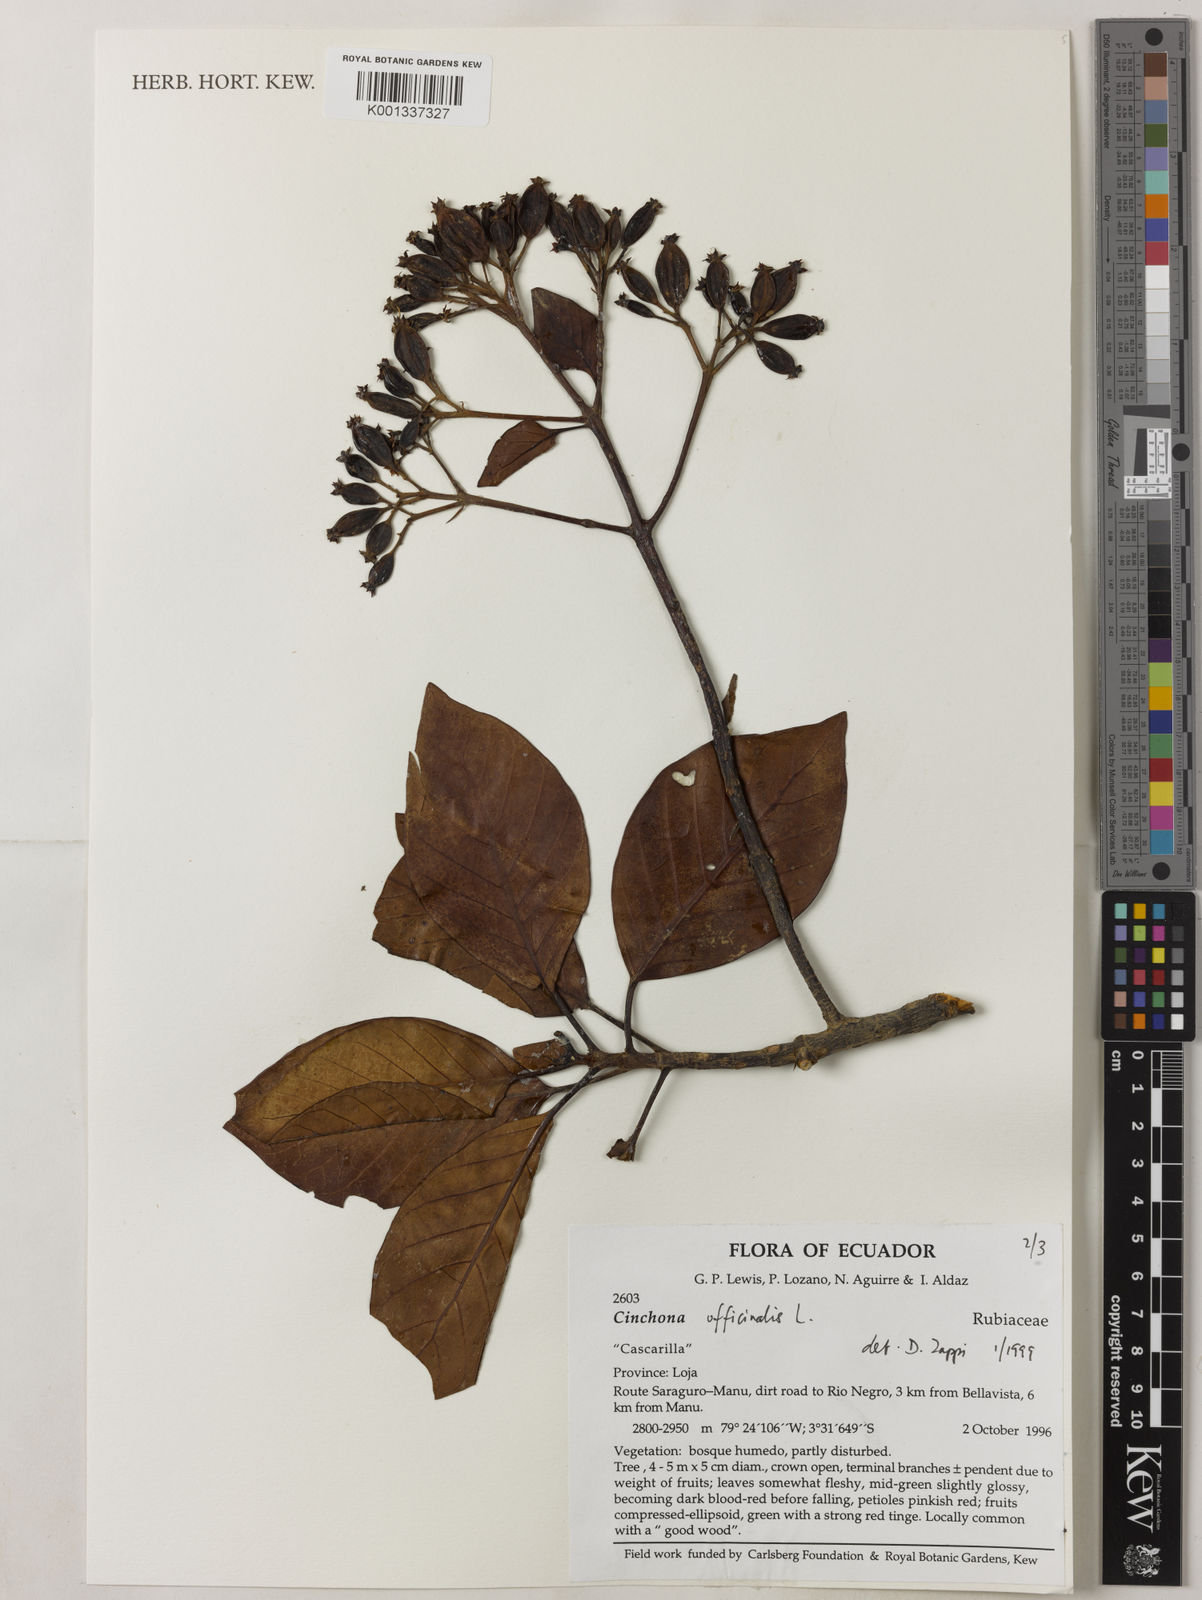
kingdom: Plantae
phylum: Tracheophyta
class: Magnoliopsida
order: Gentianales
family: Rubiaceae
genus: Cinchona
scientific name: Cinchona officinalis
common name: Lojabark
